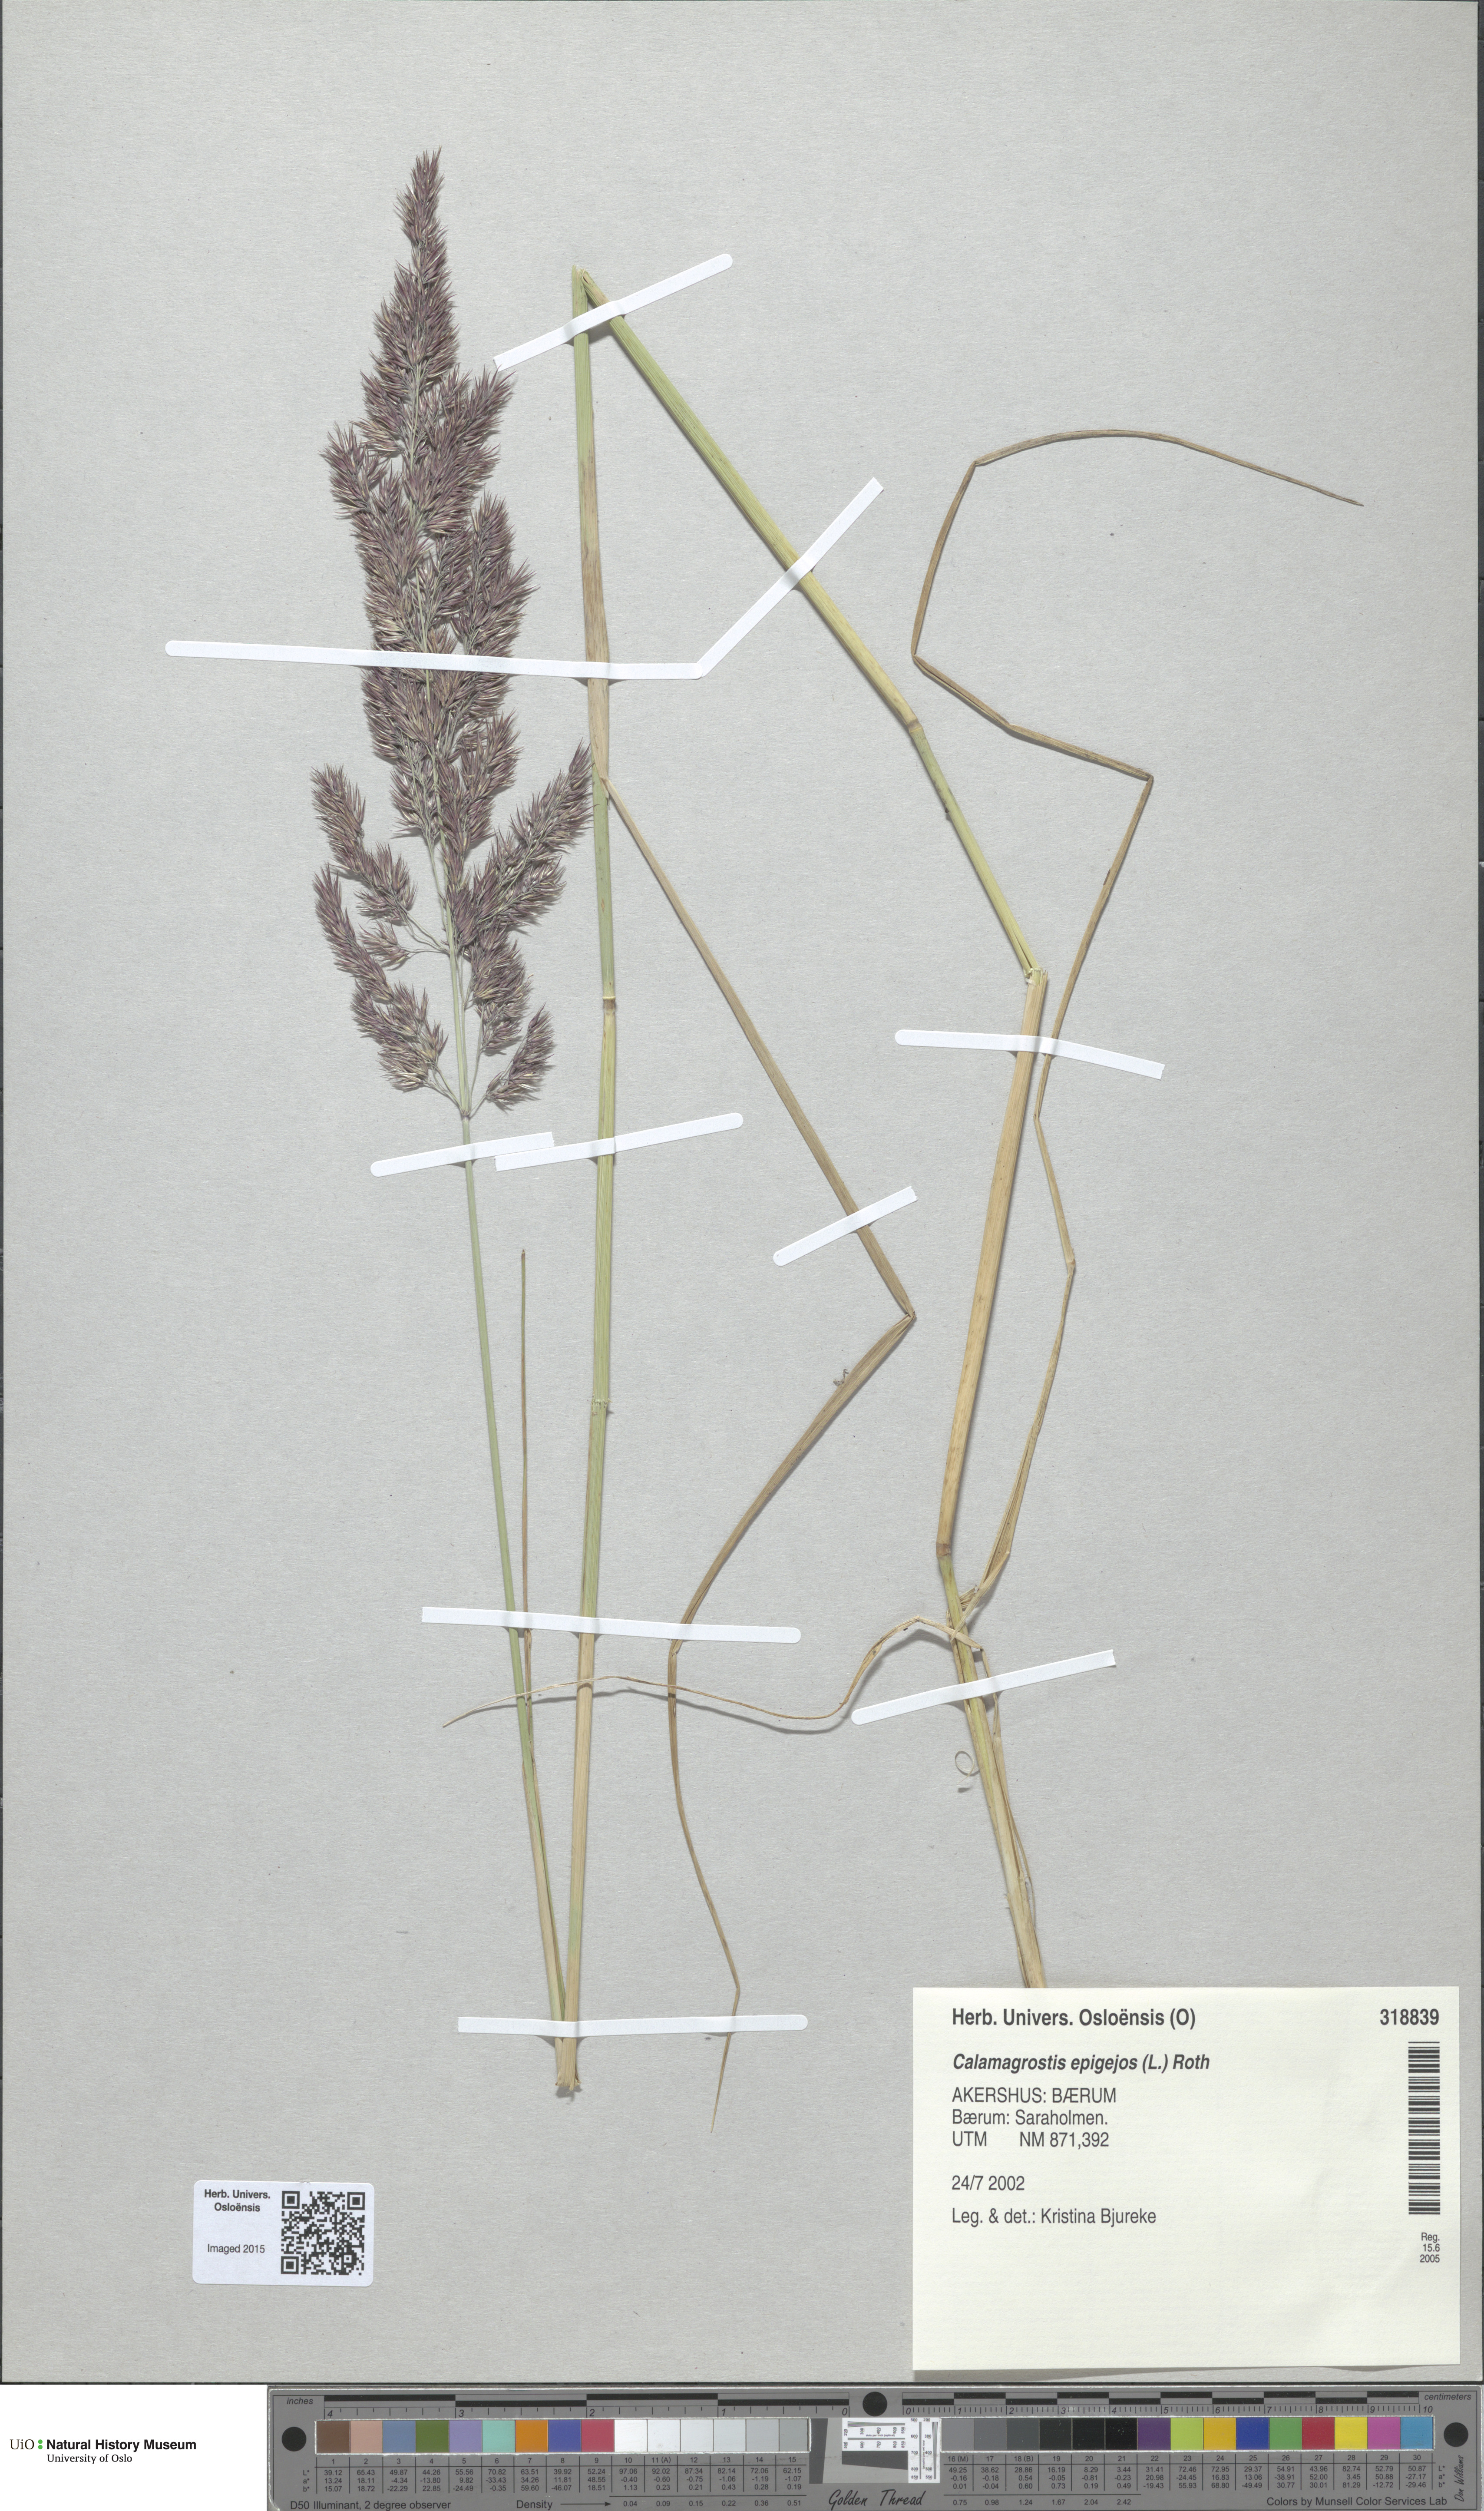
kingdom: Plantae
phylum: Tracheophyta
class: Liliopsida
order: Poales
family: Poaceae
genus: Calamagrostis
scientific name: Calamagrostis epigejos
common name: Wood small-reed
